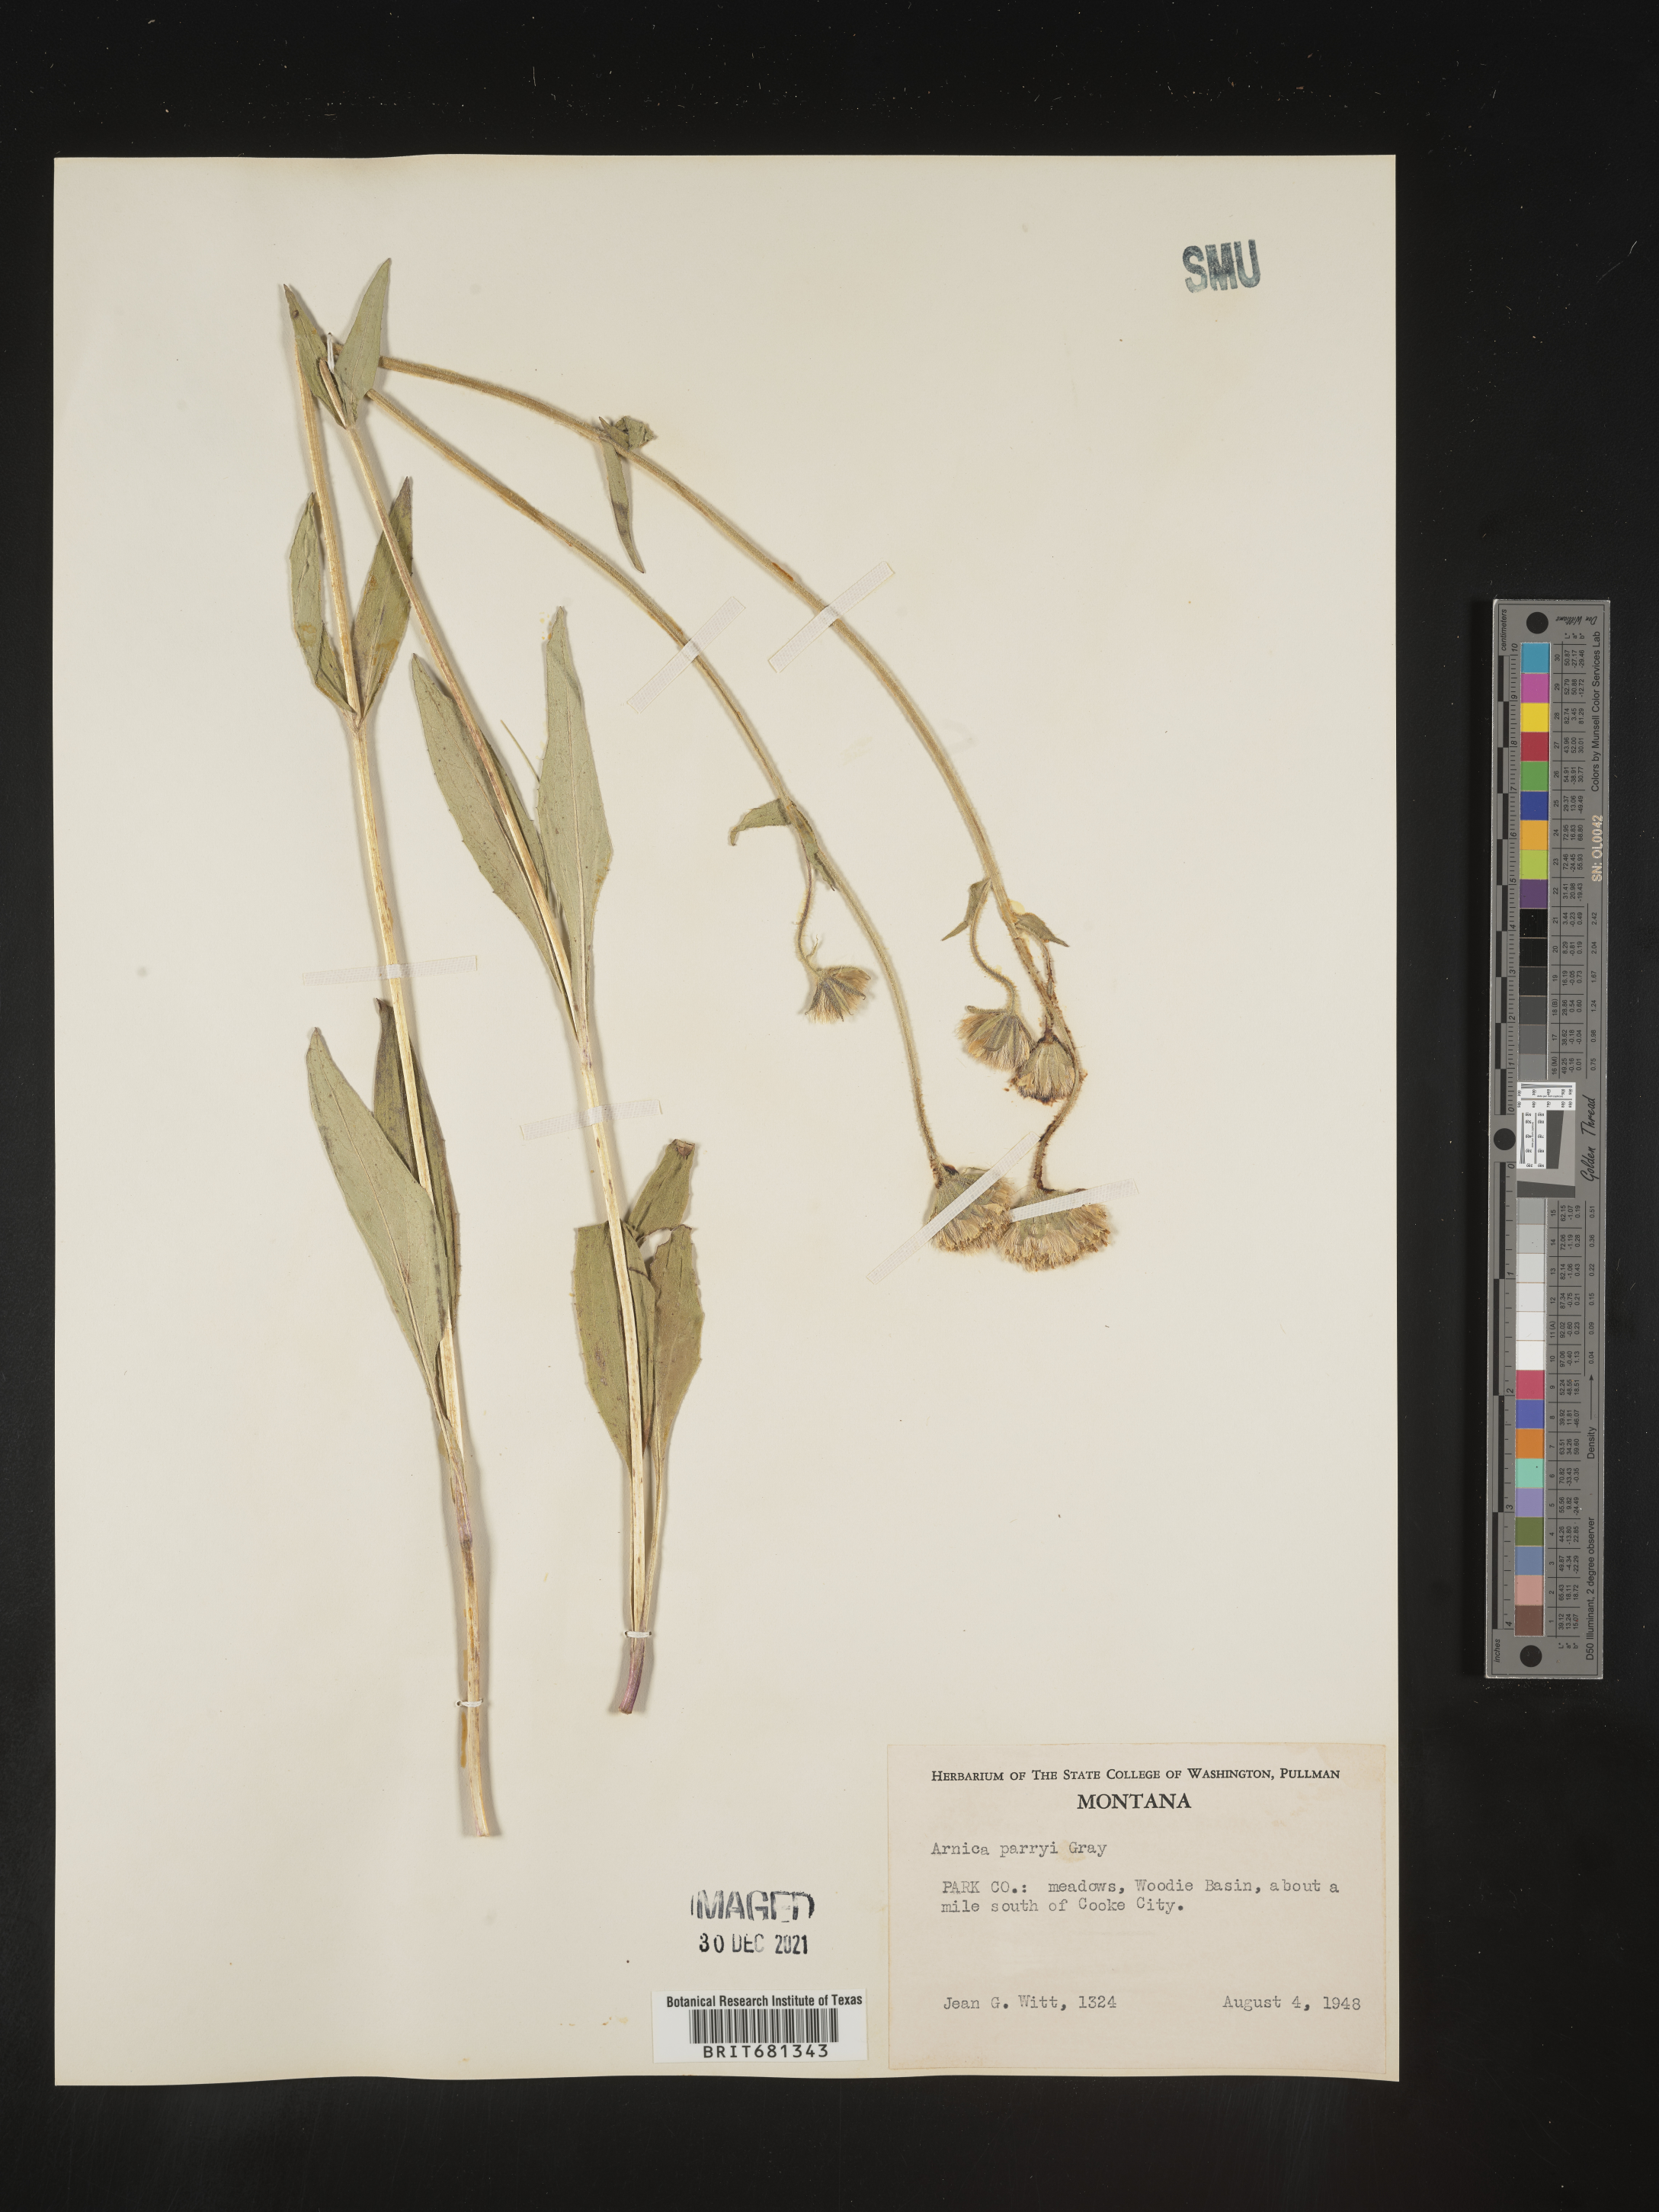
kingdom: Plantae
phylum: Tracheophyta
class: Magnoliopsida
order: Asterales
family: Asteraceae
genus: Arnica
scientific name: Arnica parryi
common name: Parry's arnica
